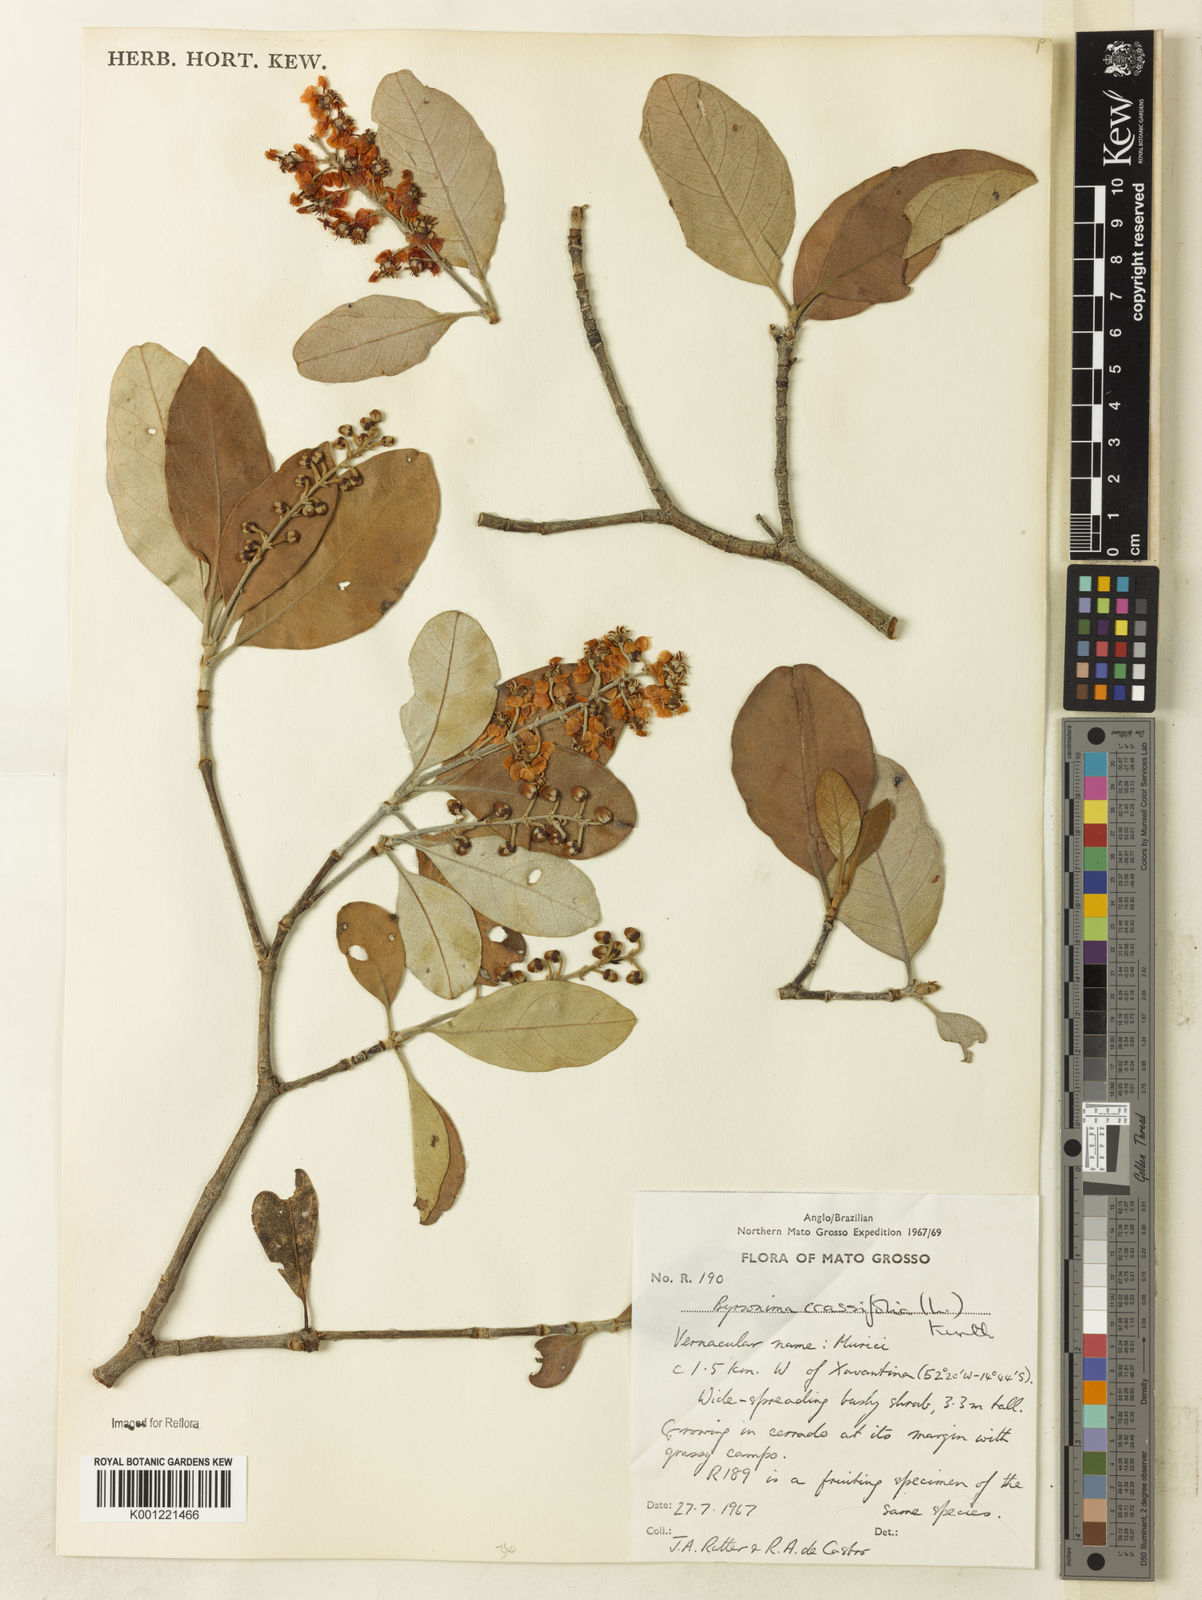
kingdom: Plantae
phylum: Tracheophyta
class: Magnoliopsida
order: Malpighiales
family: Malpighiaceae
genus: Byrsonima
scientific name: Byrsonima cydoniifolia
